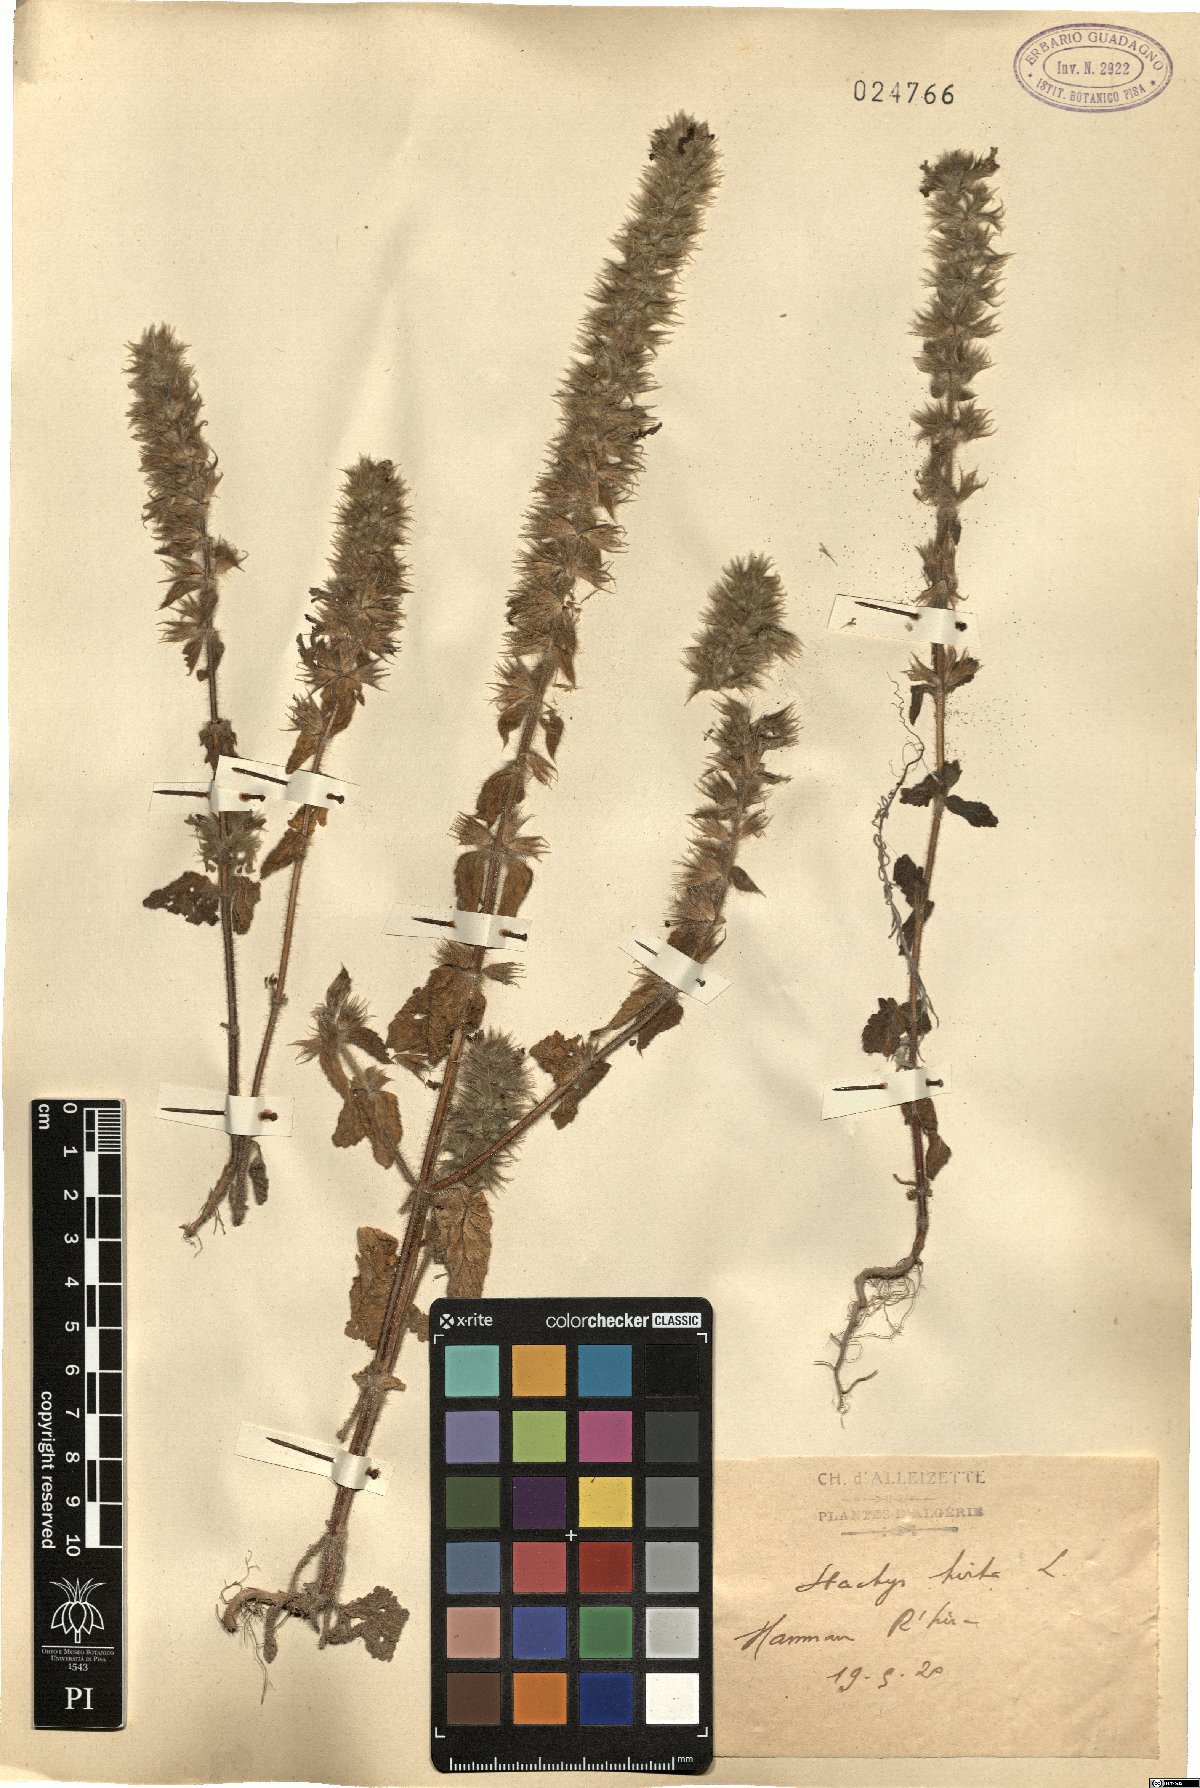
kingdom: Plantae
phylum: Tracheophyta
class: Magnoliopsida
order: Lamiales
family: Lamiaceae
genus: Stachys
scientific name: Stachys ocymastrum
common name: Italian hedgenettle
